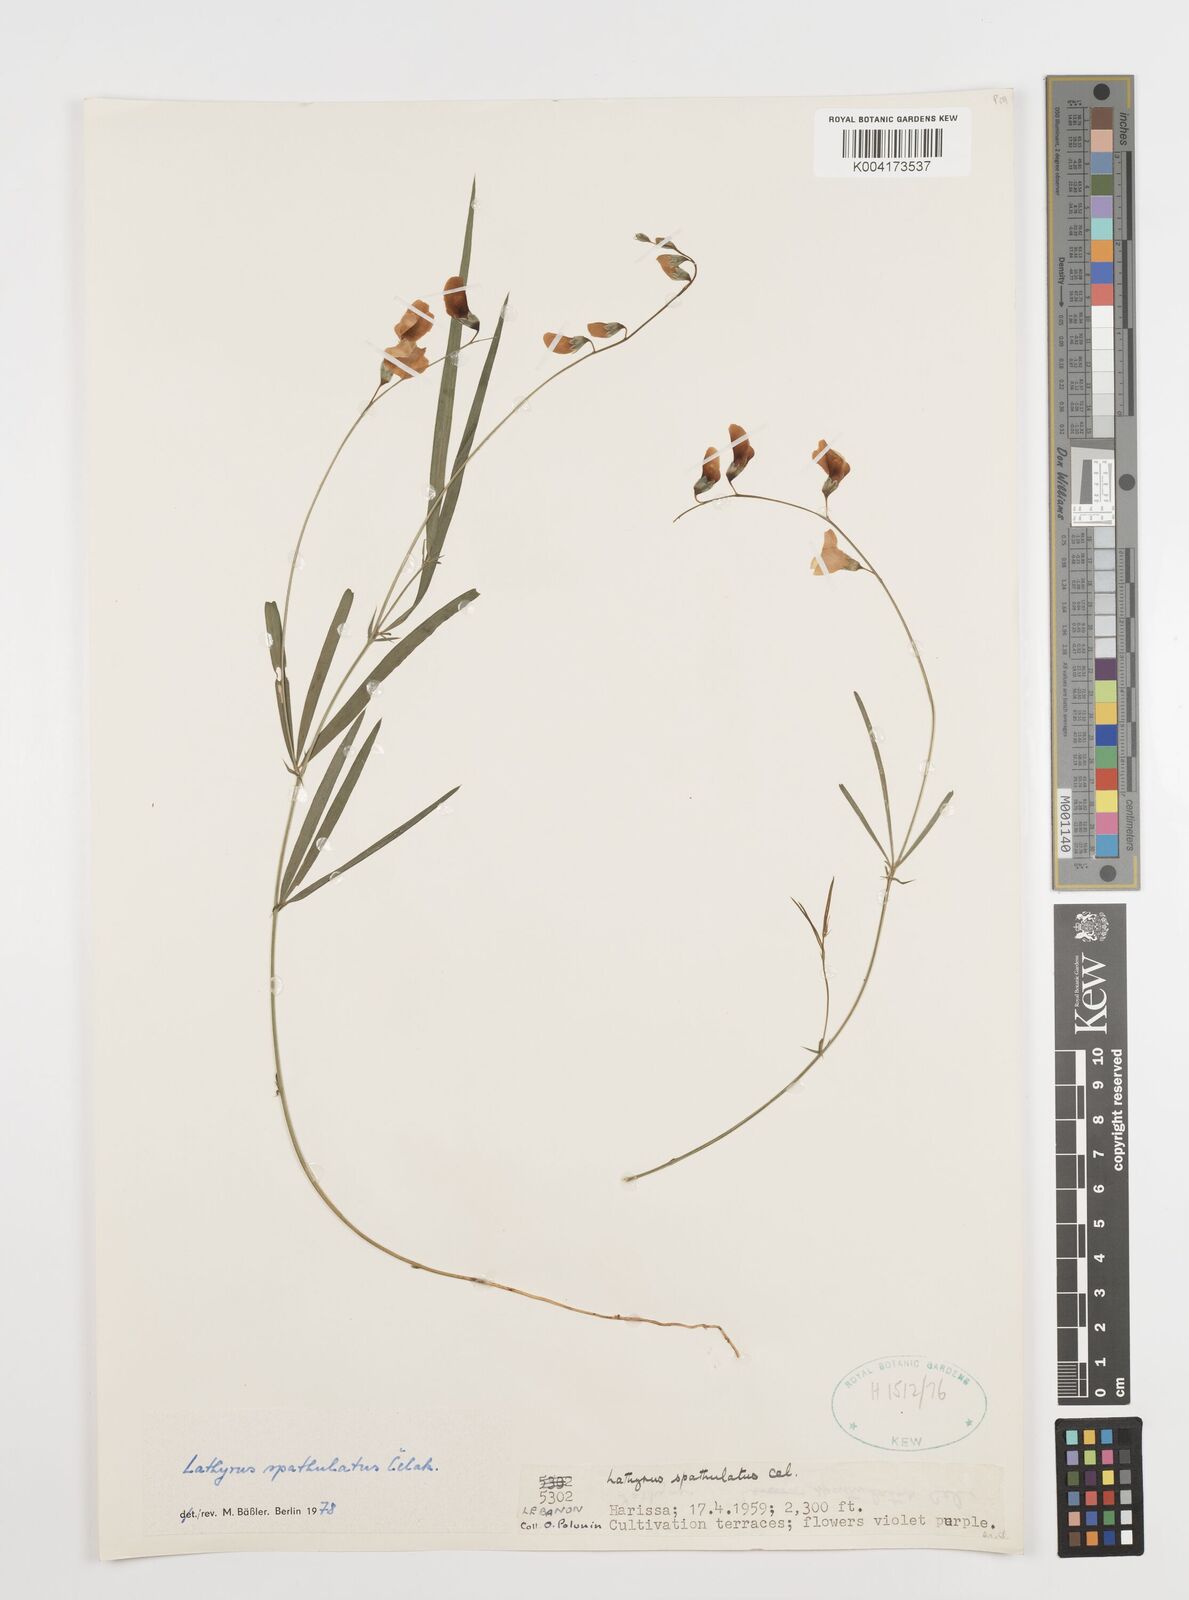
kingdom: Plantae
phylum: Tracheophyta
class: Magnoliopsida
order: Fabales
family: Fabaceae
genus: Lathyrus
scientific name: Lathyrus spathulatus
